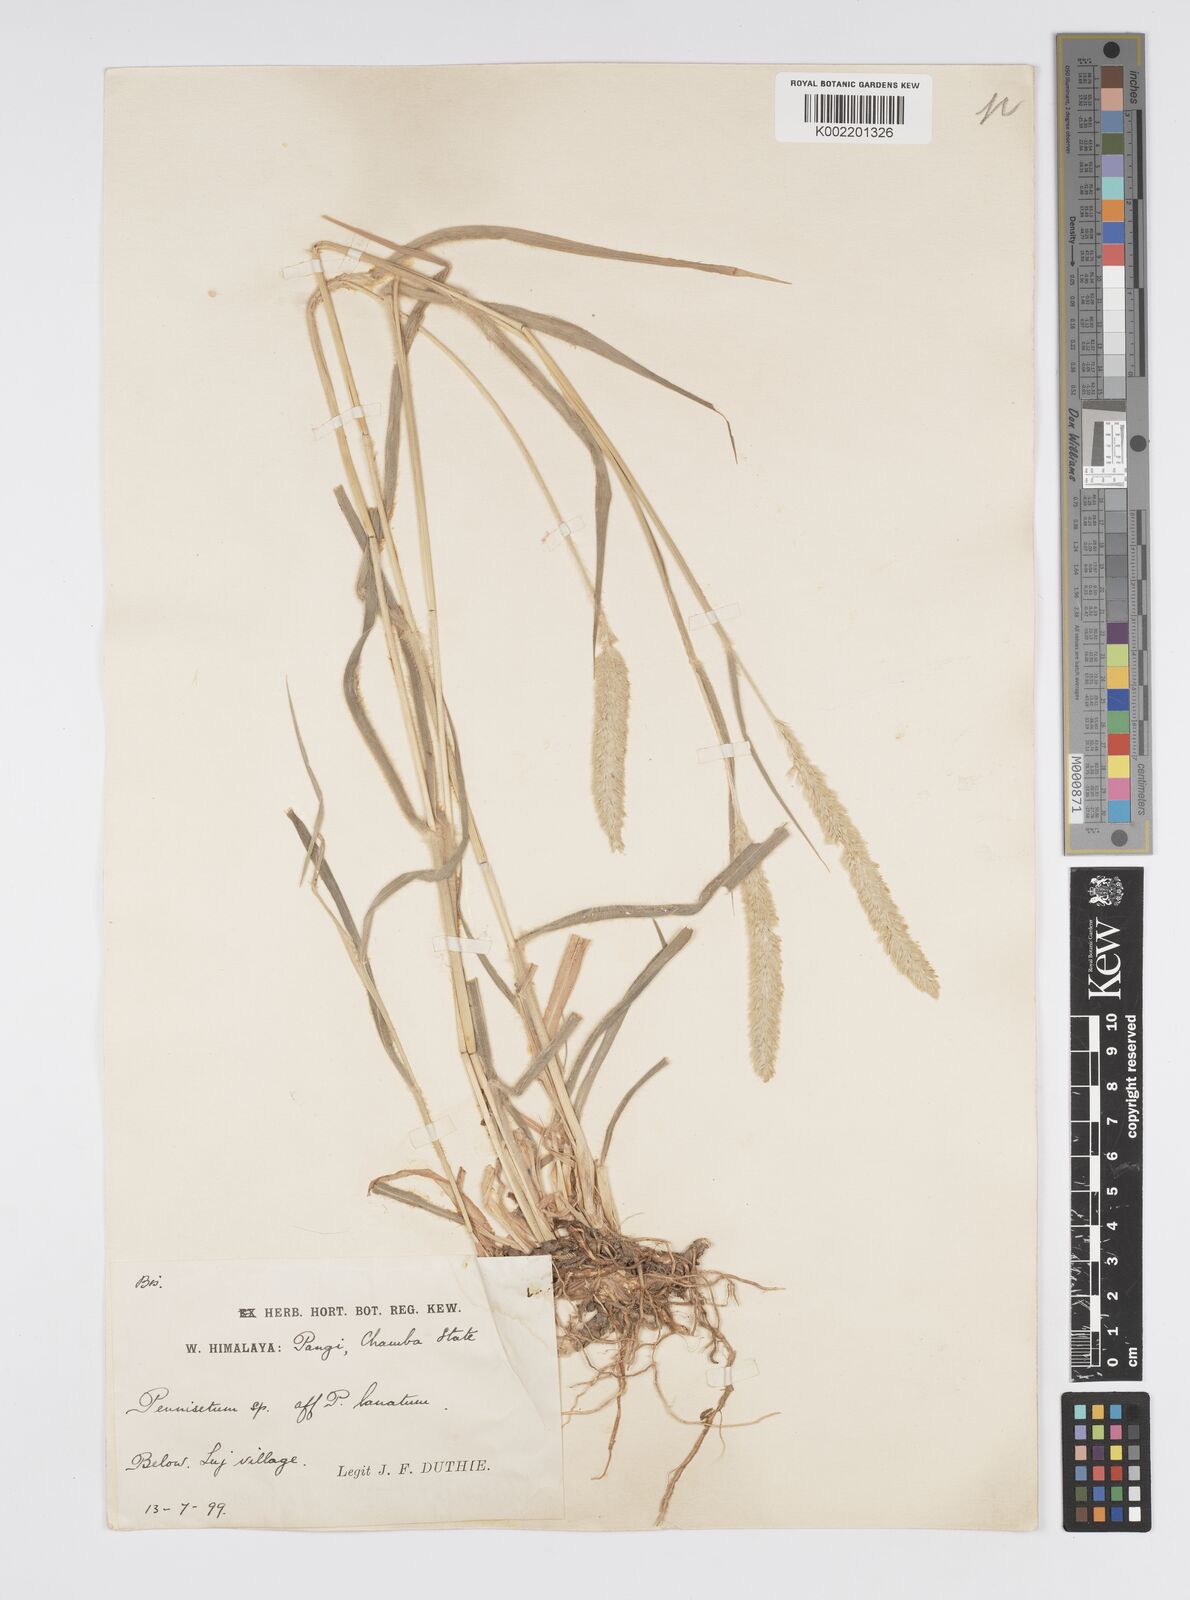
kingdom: Plantae
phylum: Tracheophyta
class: Liliopsida
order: Poales
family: Poaceae
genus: Cenchrus
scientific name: Cenchrus lanatus
